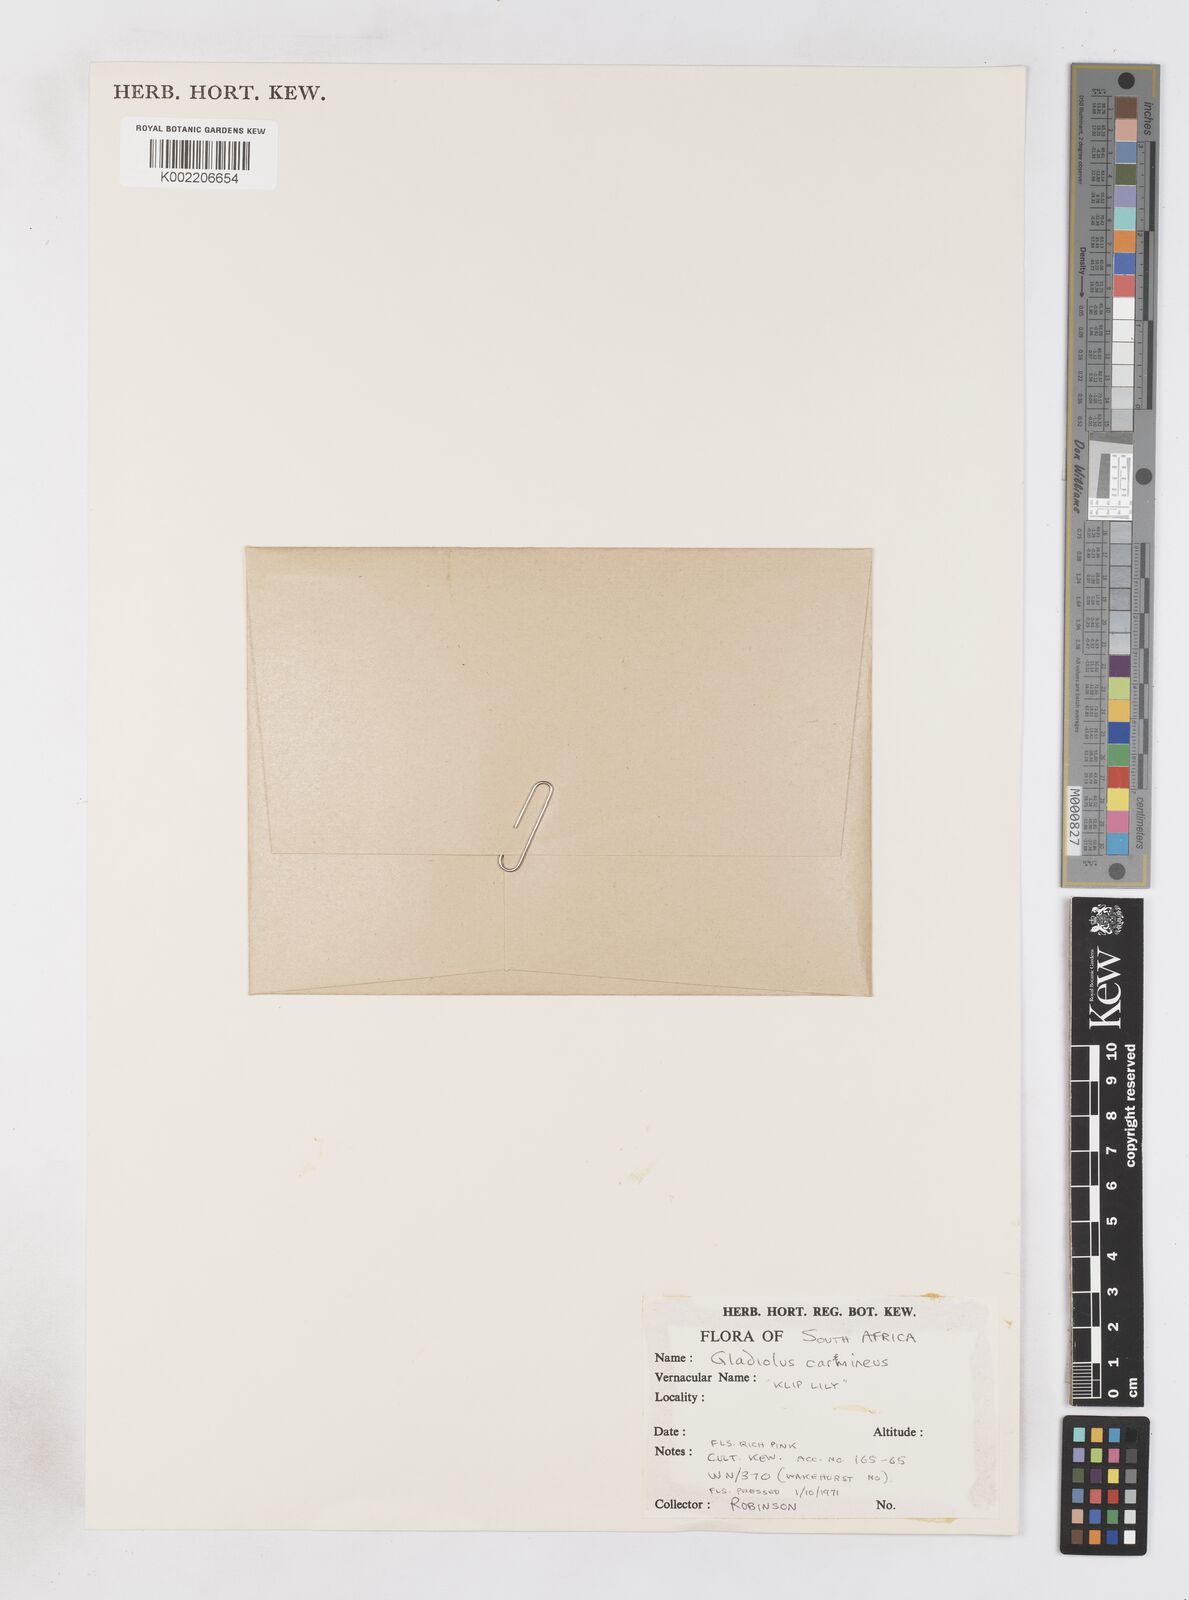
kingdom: Plantae
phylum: Tracheophyta
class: Liliopsida
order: Asparagales
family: Iridaceae
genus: Gladiolus
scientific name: Gladiolus carmineus
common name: Hermanus gladiolus
